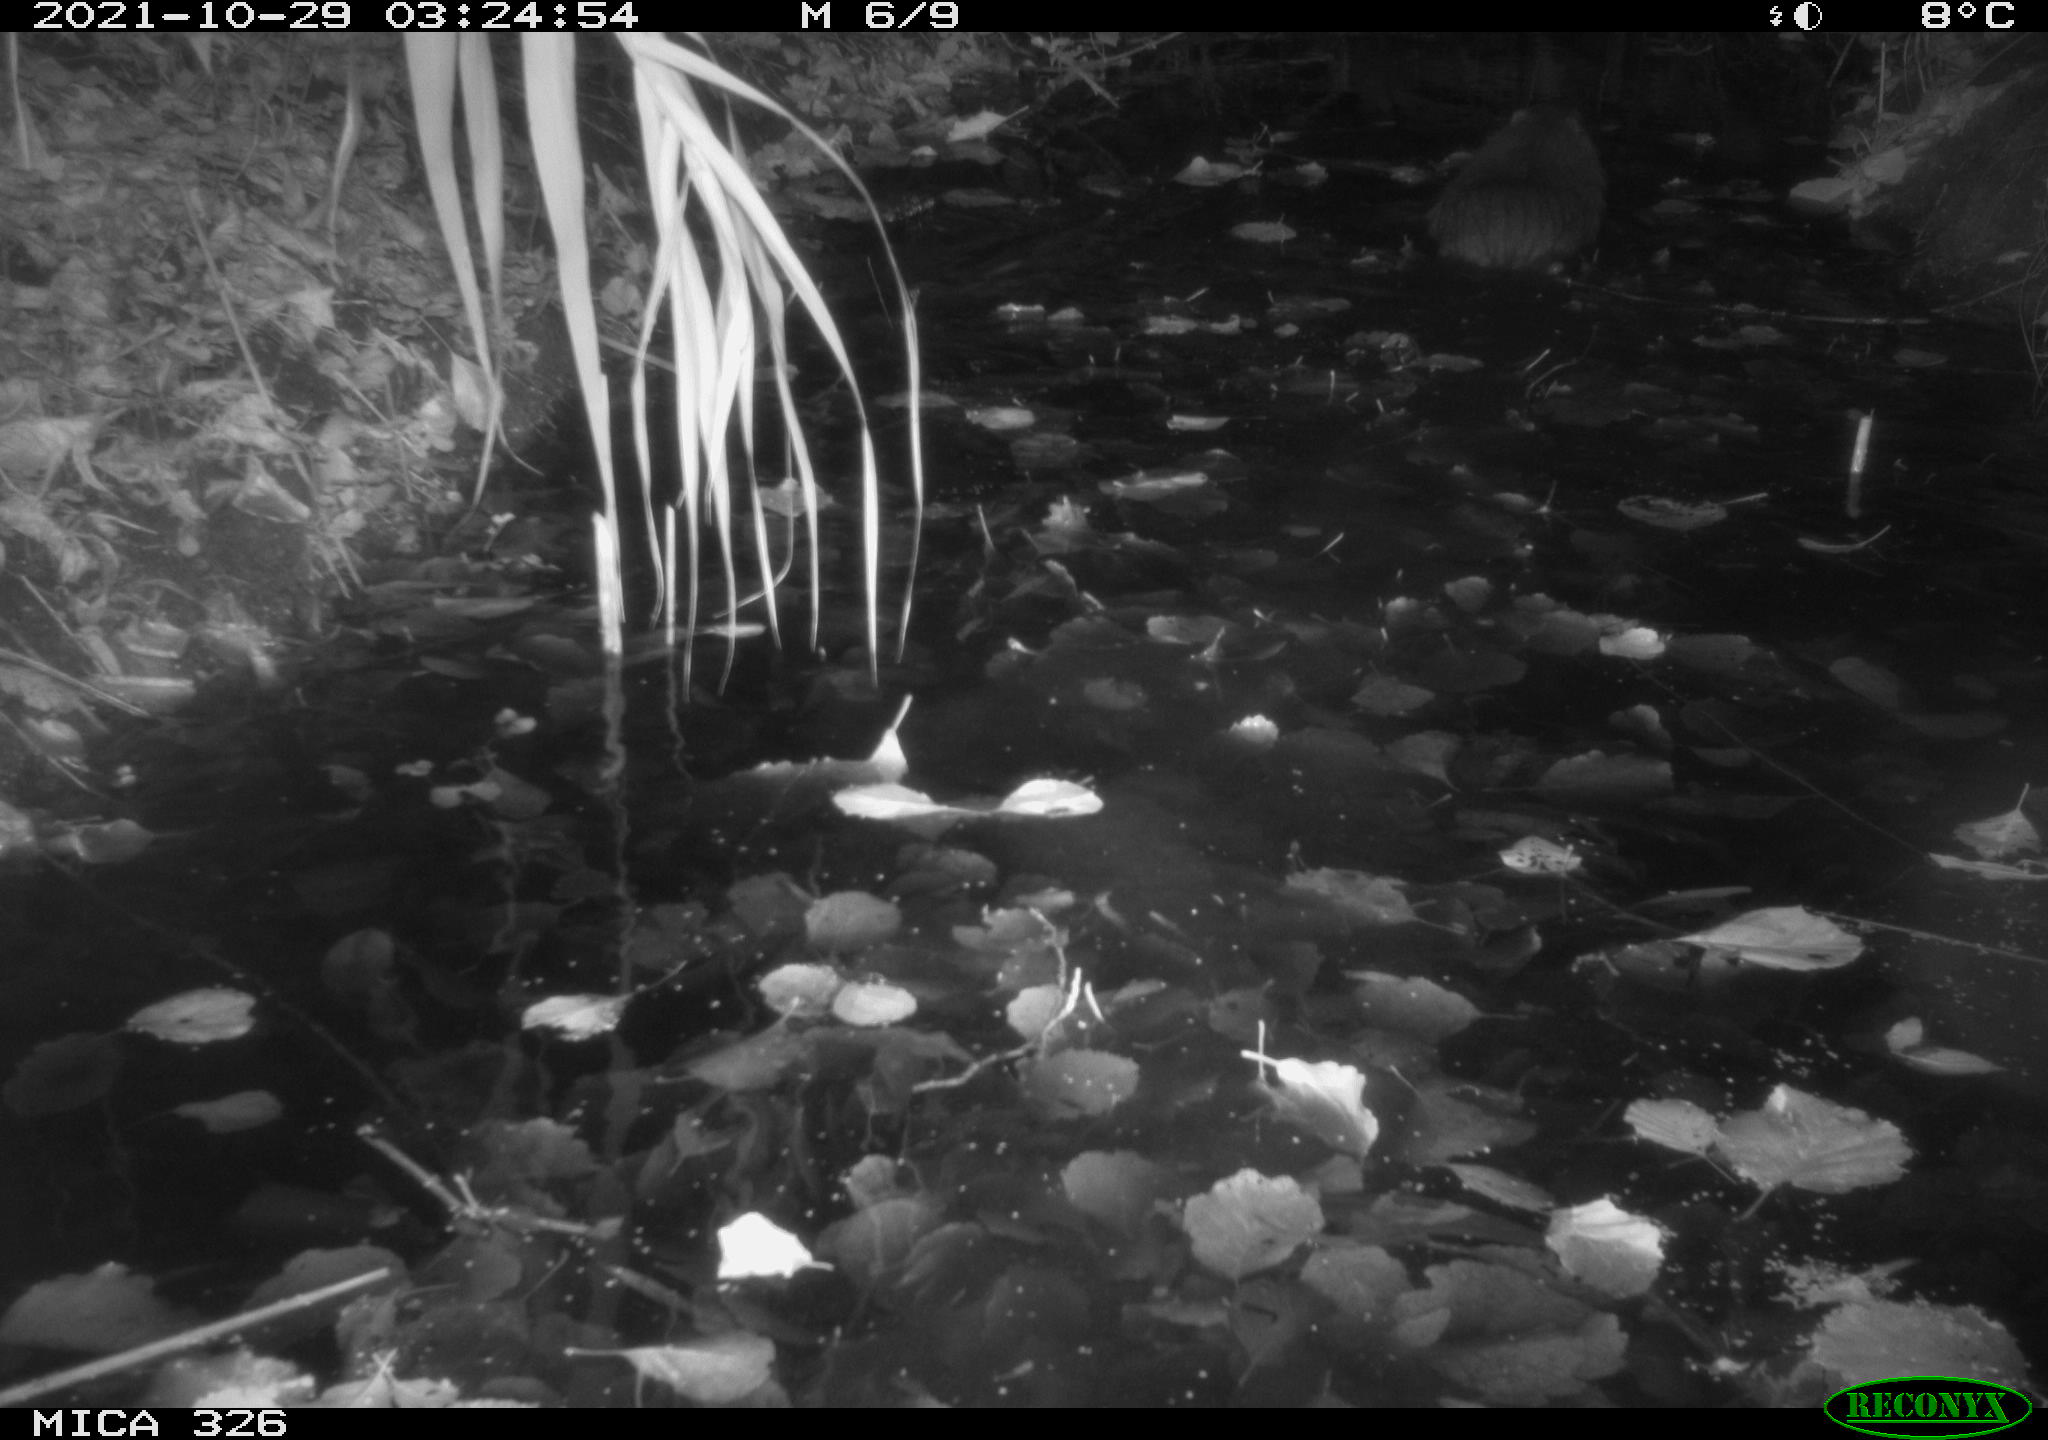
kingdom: Animalia
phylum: Chordata
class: Mammalia
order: Rodentia
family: Myocastoridae
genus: Myocastor
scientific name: Myocastor coypus
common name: Coypu
